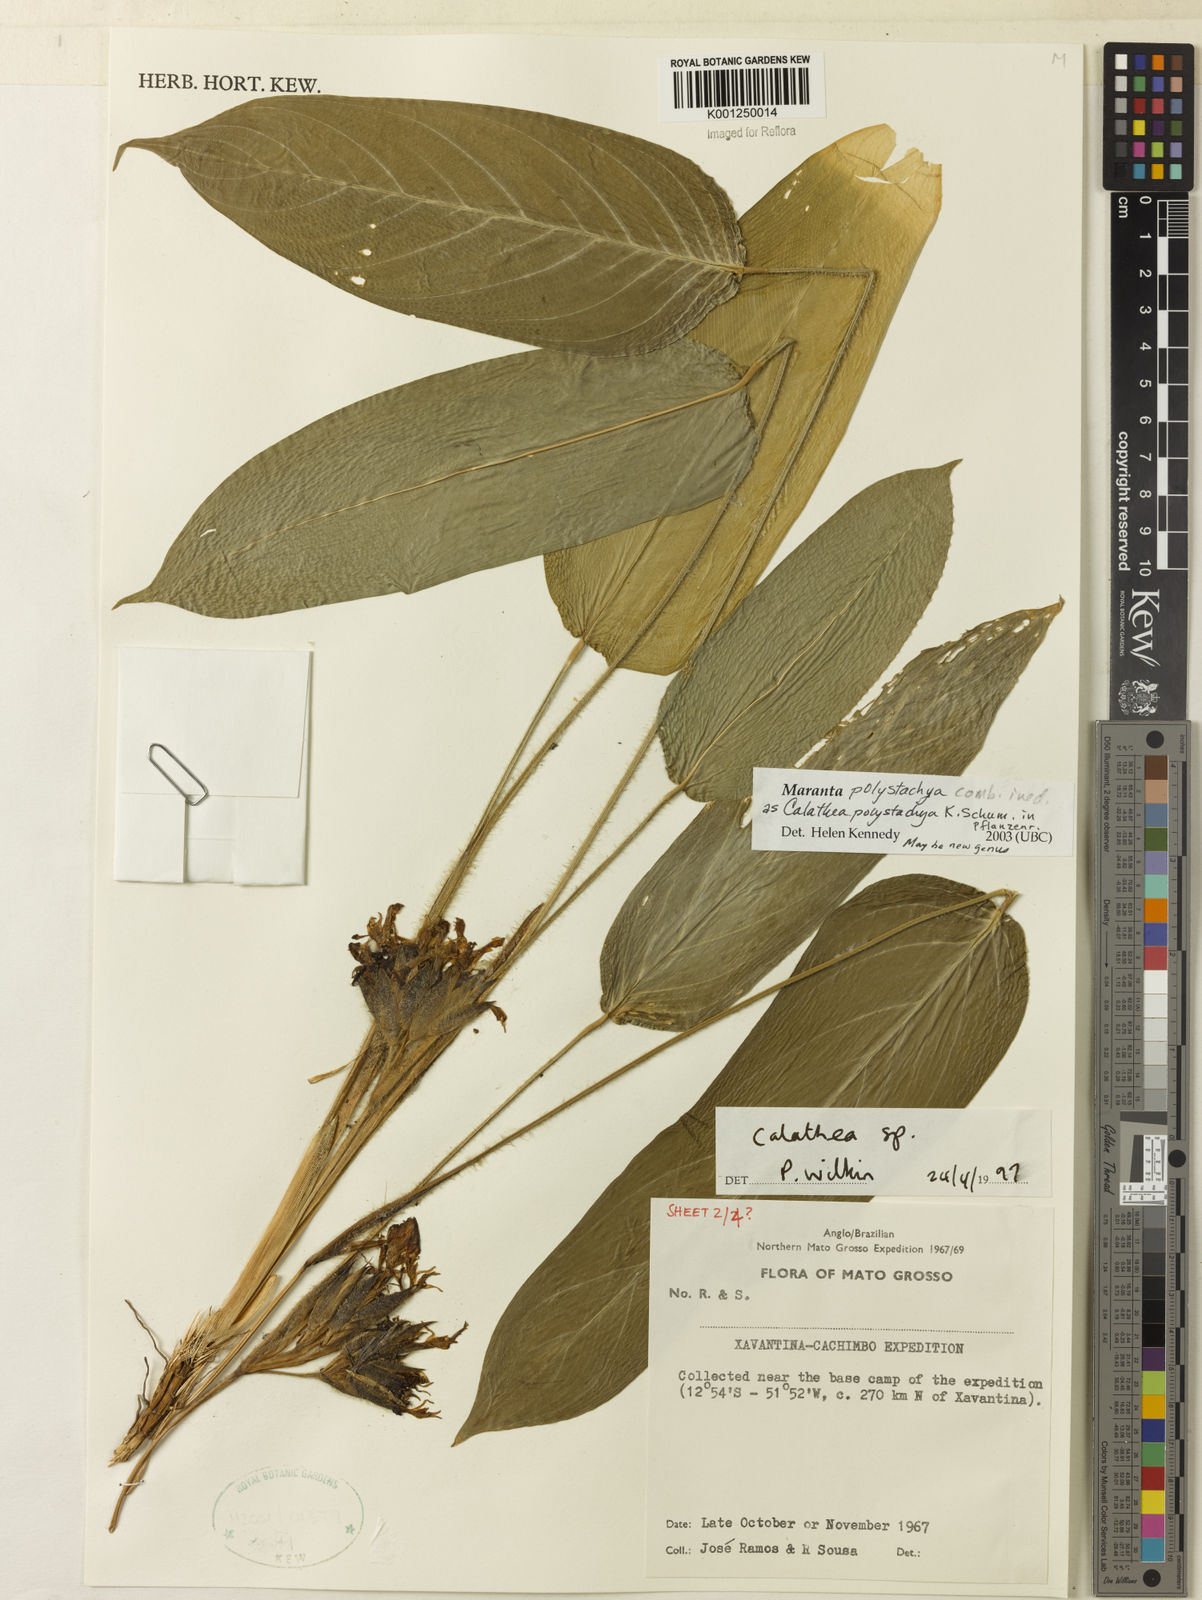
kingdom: Plantae
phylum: Tracheophyta
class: Liliopsida
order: Zingiberales
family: Marantaceae
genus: Ischnosiphon
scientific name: Ischnosiphon polyphyllus
